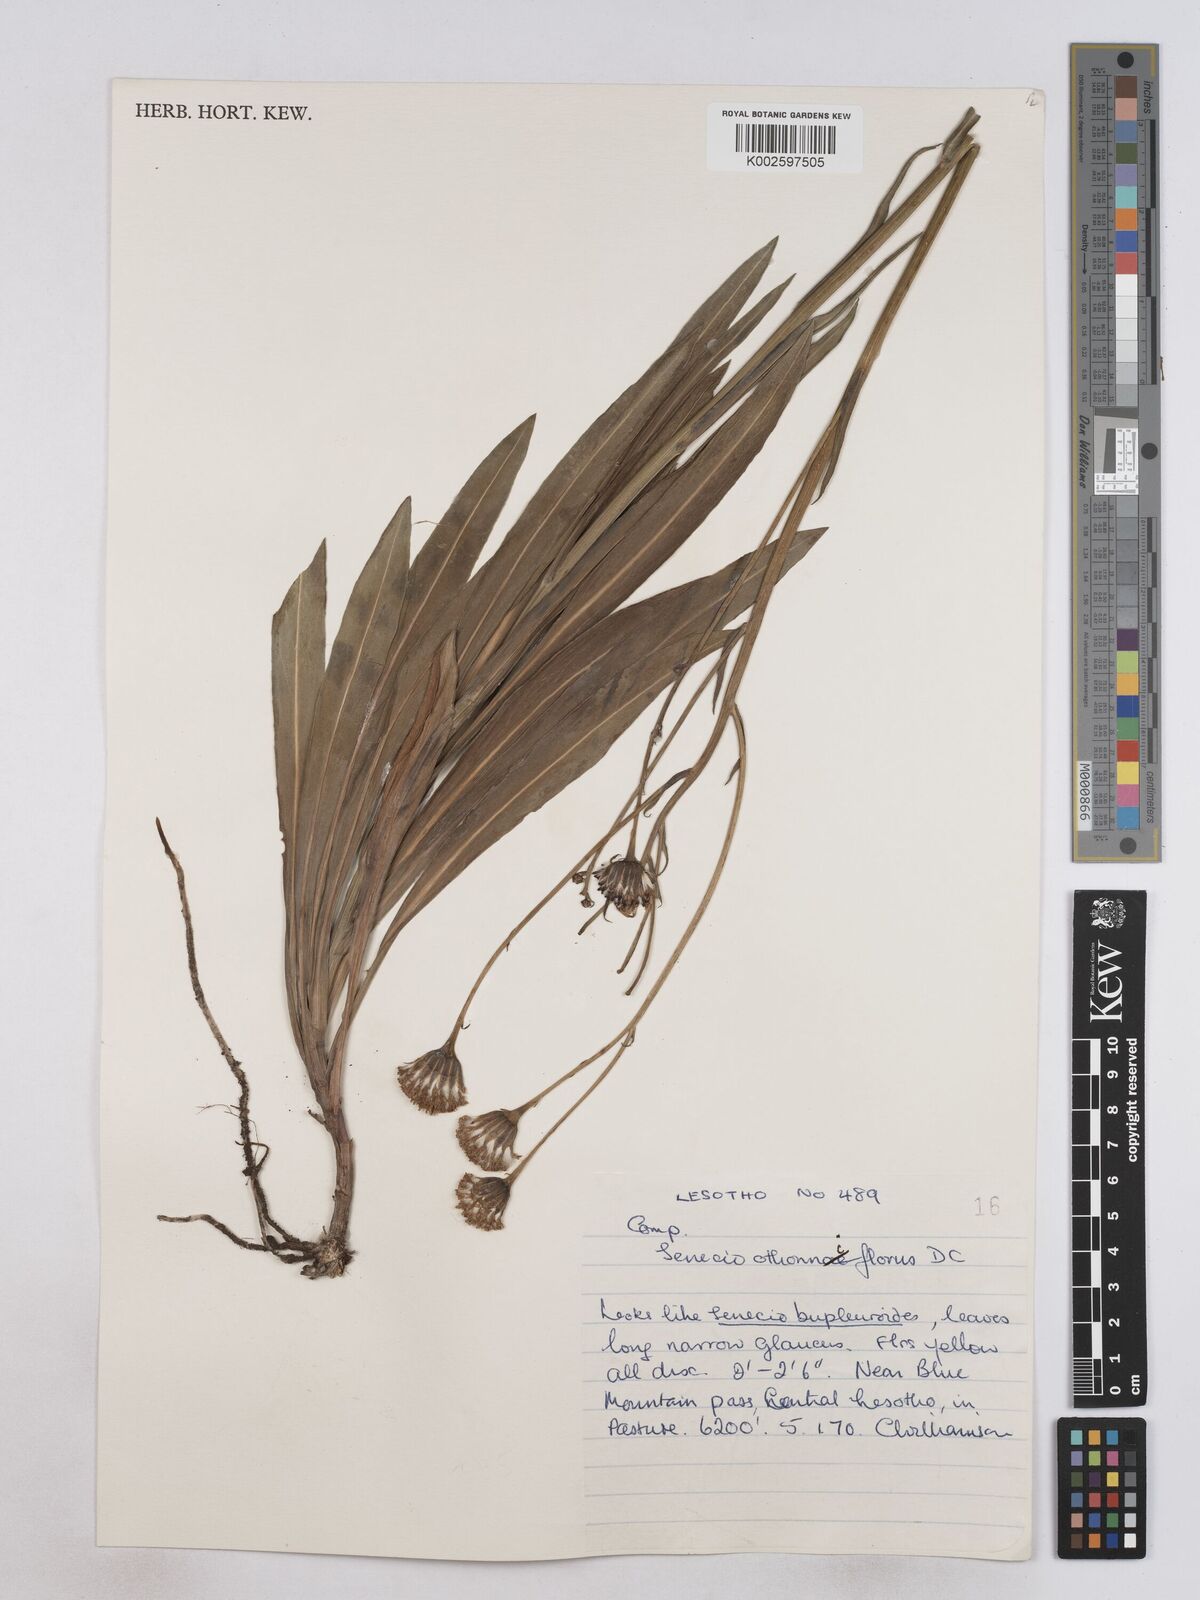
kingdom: Plantae
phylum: Tracheophyta
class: Magnoliopsida
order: Asterales
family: Asteraceae
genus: Senecio
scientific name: Senecio othonniflorus
